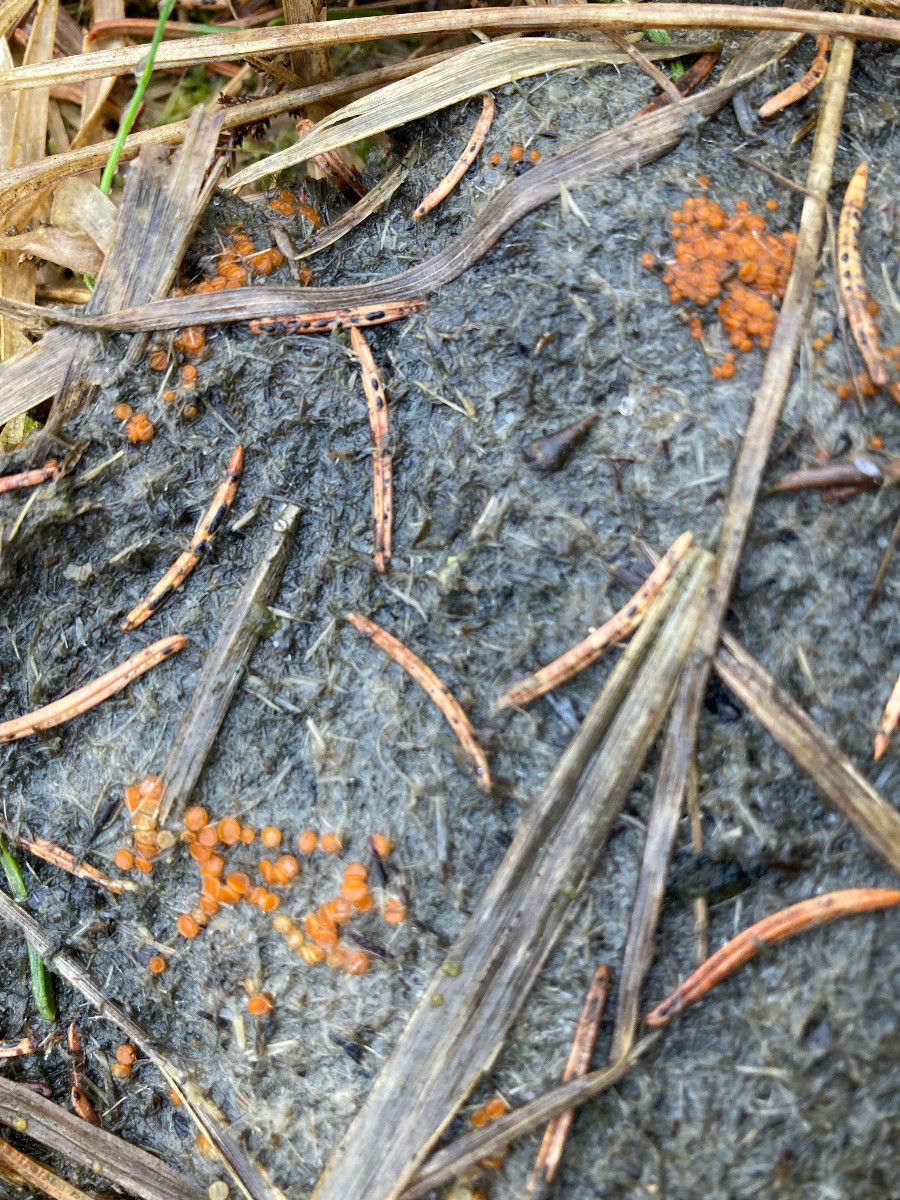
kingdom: Fungi
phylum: Ascomycota
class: Pezizomycetes
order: Pezizales
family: Pyronemataceae
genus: Cheilymenia
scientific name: Cheilymenia
